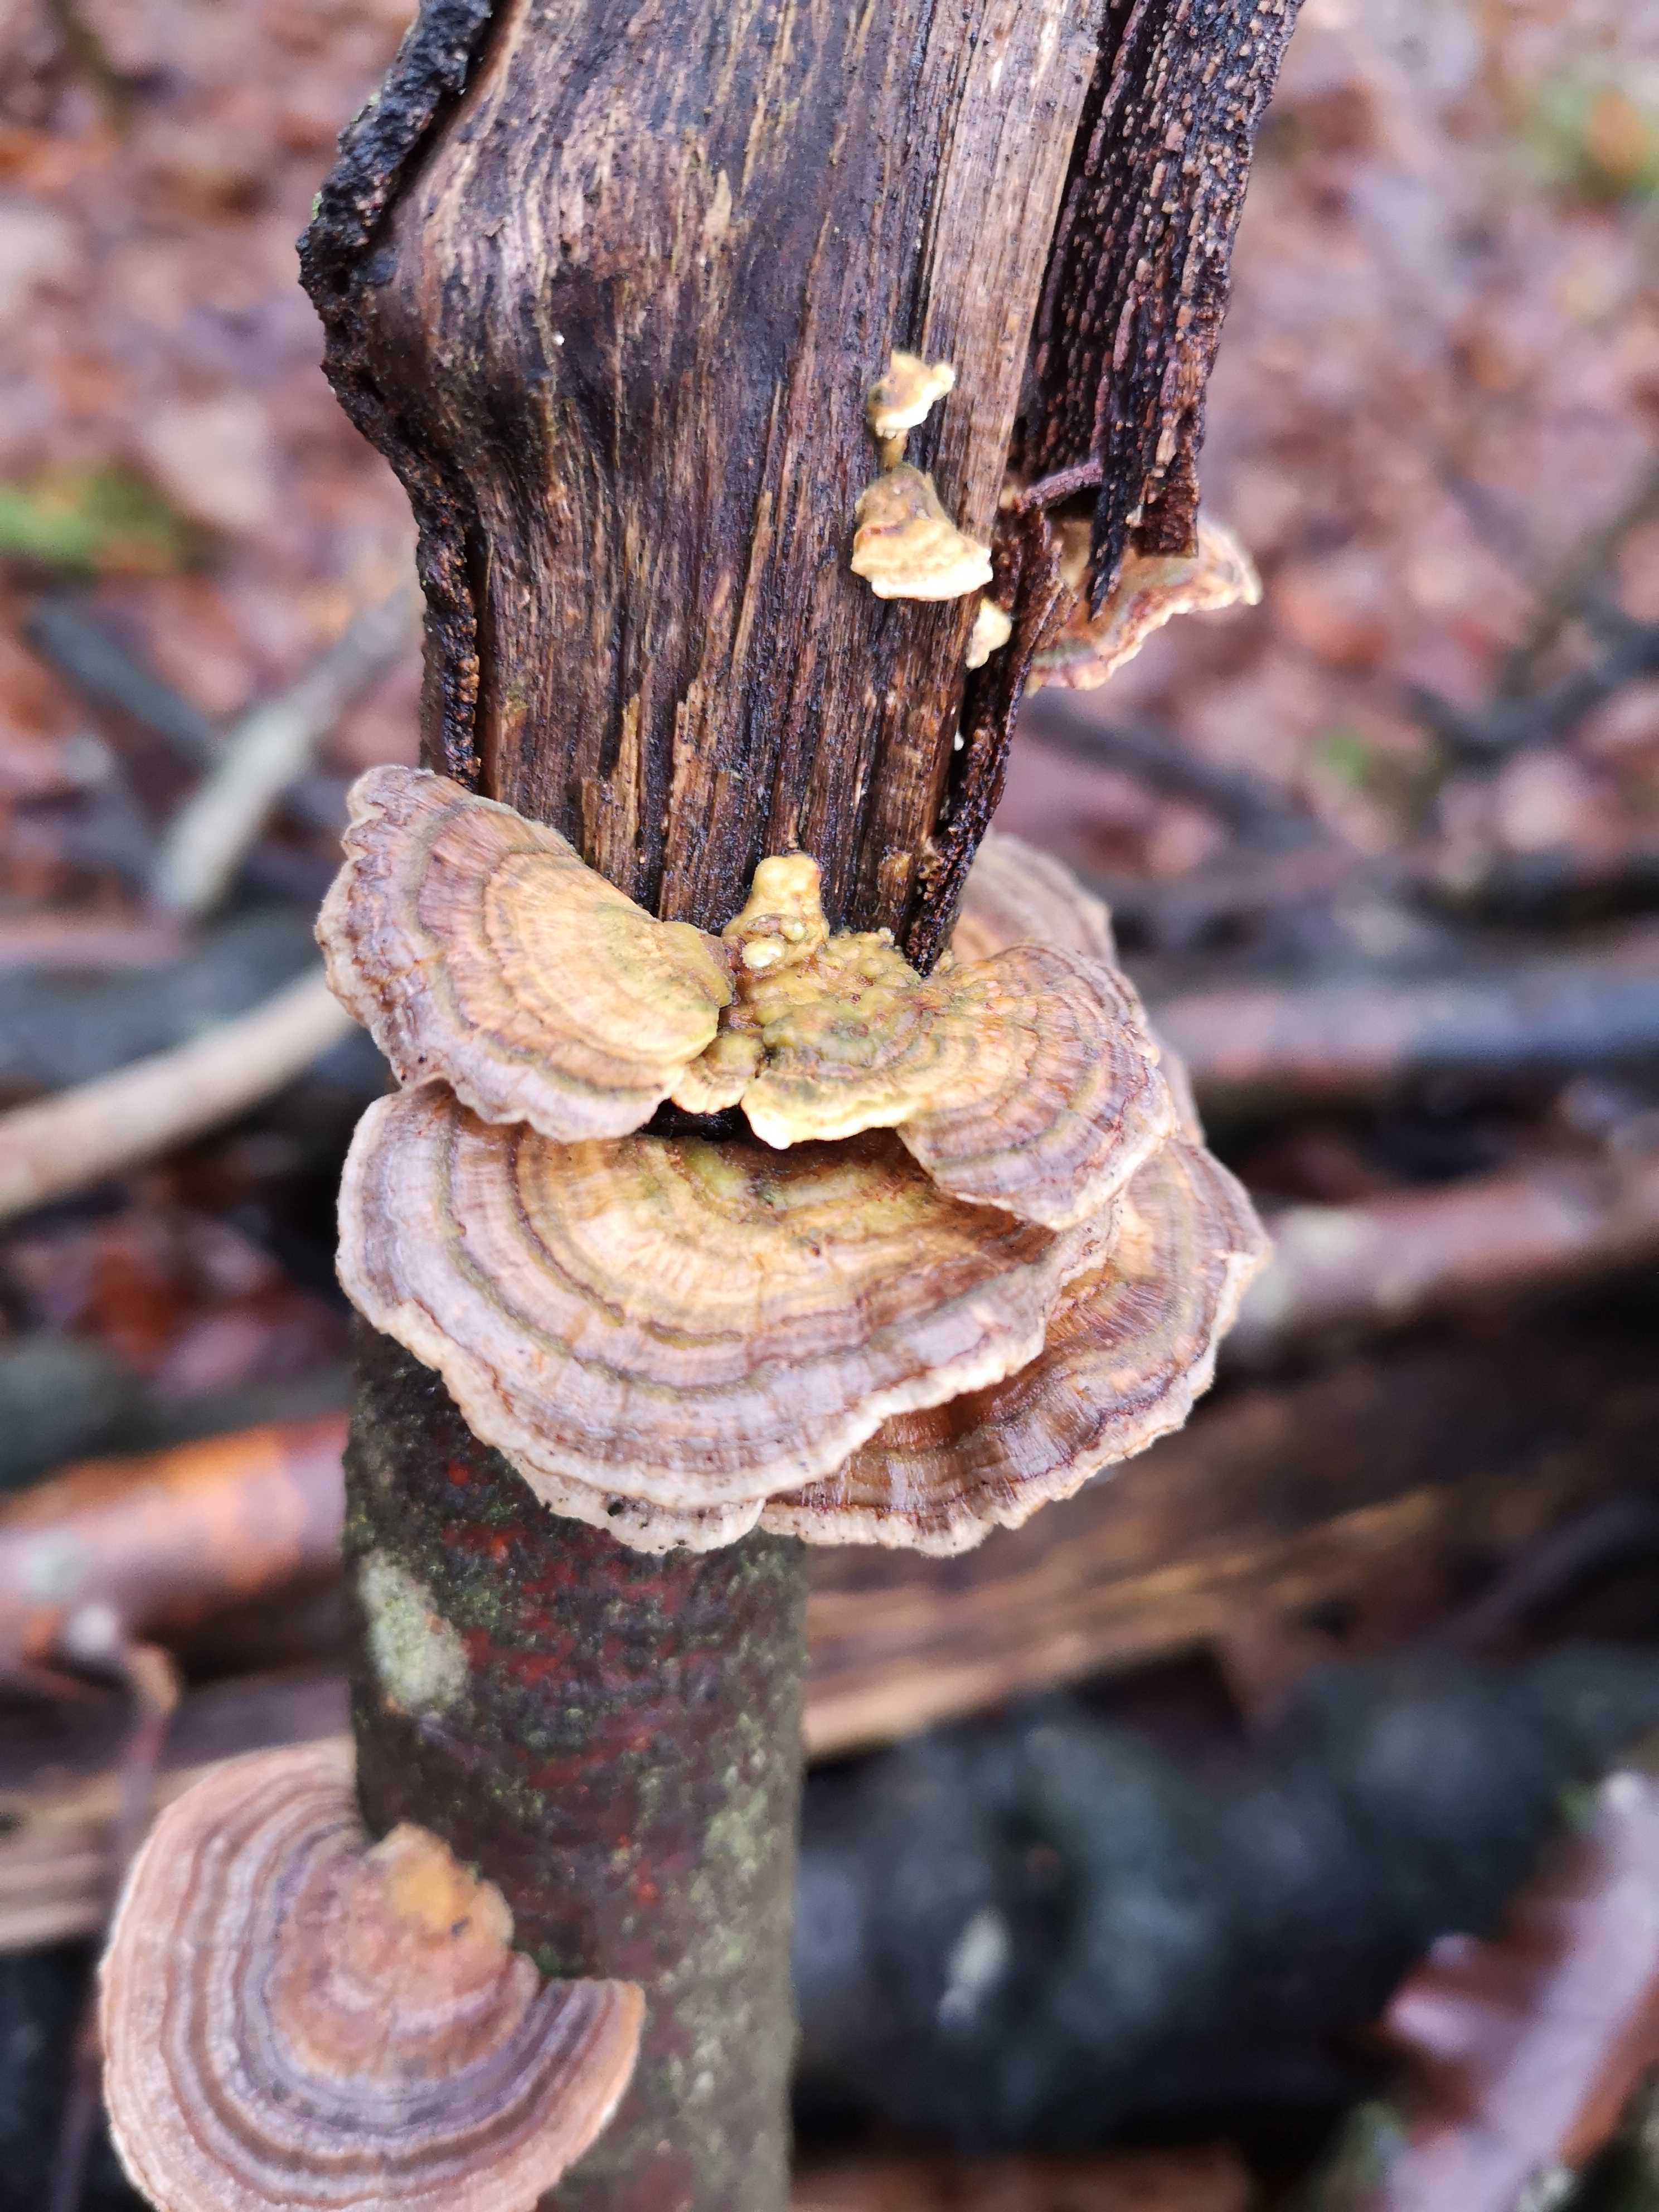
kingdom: Fungi
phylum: Basidiomycota
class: Agaricomycetes
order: Polyporales
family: Polyporaceae
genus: Trametes
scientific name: Trametes versicolor
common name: broget læderporesvamp
